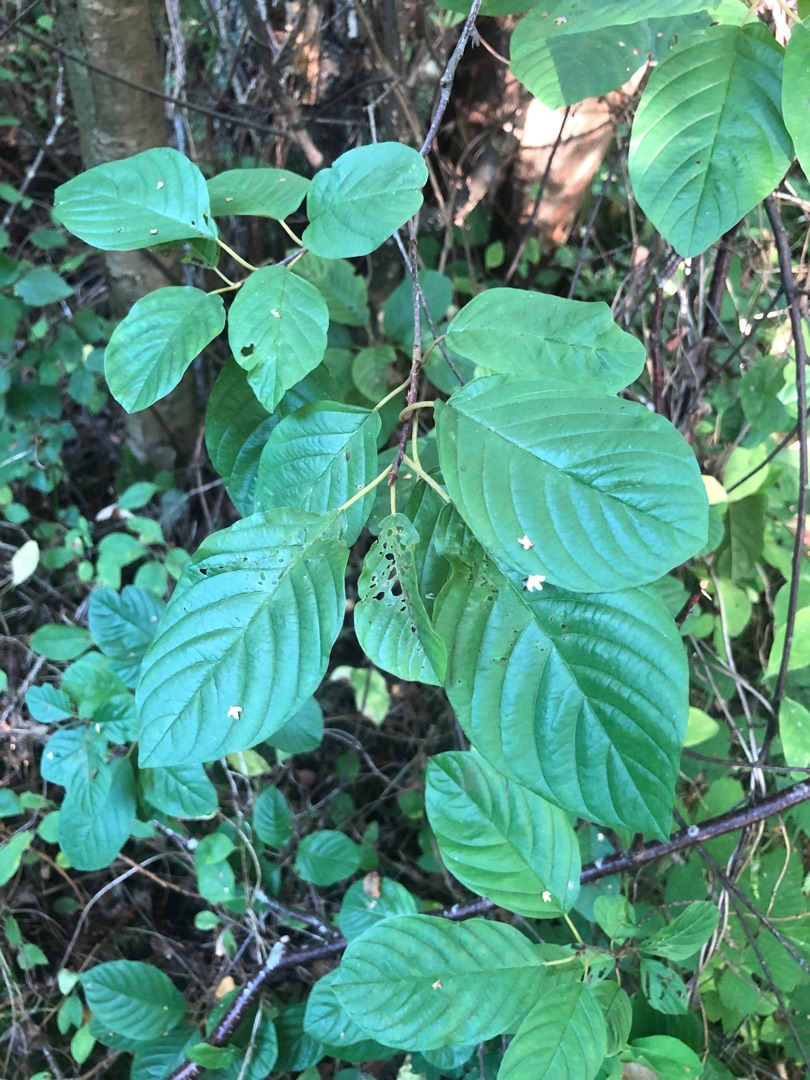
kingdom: Plantae
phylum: Tracheophyta
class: Magnoliopsida
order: Rosales
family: Rhamnaceae
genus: Frangula
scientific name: Frangula alnus
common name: Tørst
